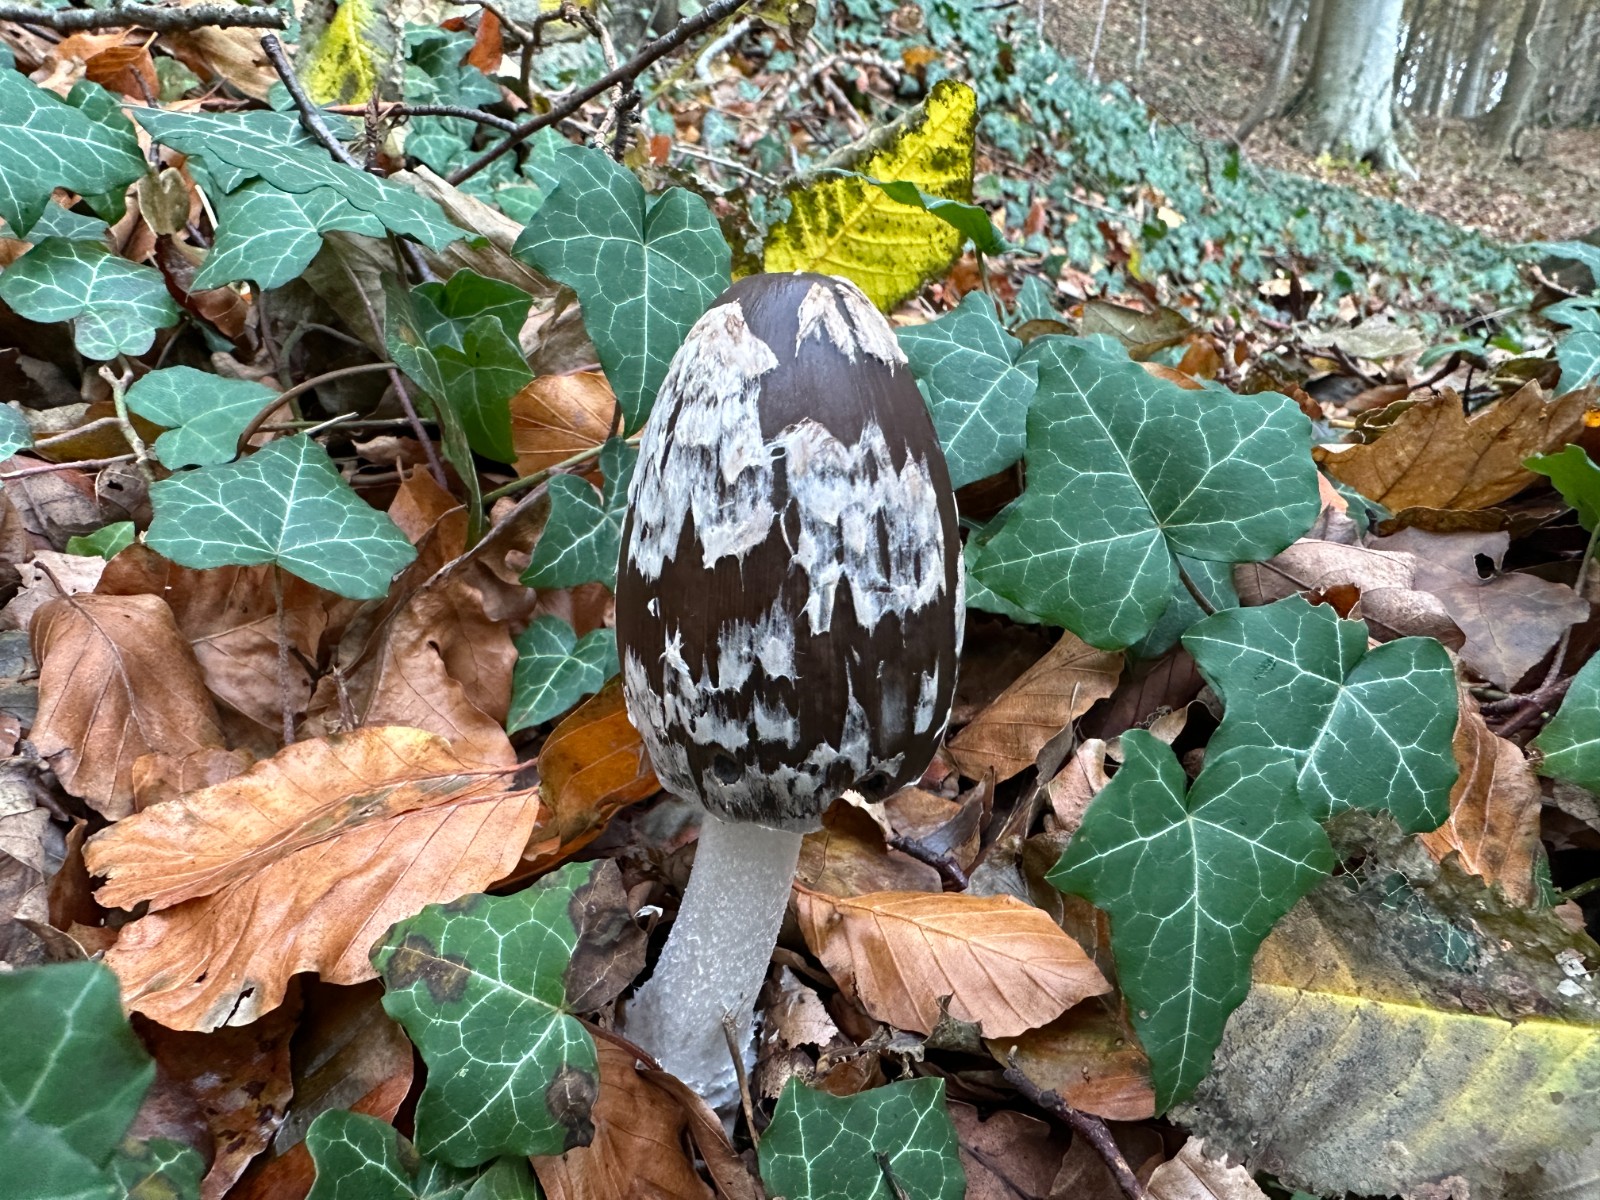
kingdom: Fungi
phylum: Basidiomycota
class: Agaricomycetes
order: Agaricales
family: Psathyrellaceae
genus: Coprinopsis
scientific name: Coprinopsis picacea
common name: skade-blækhat
